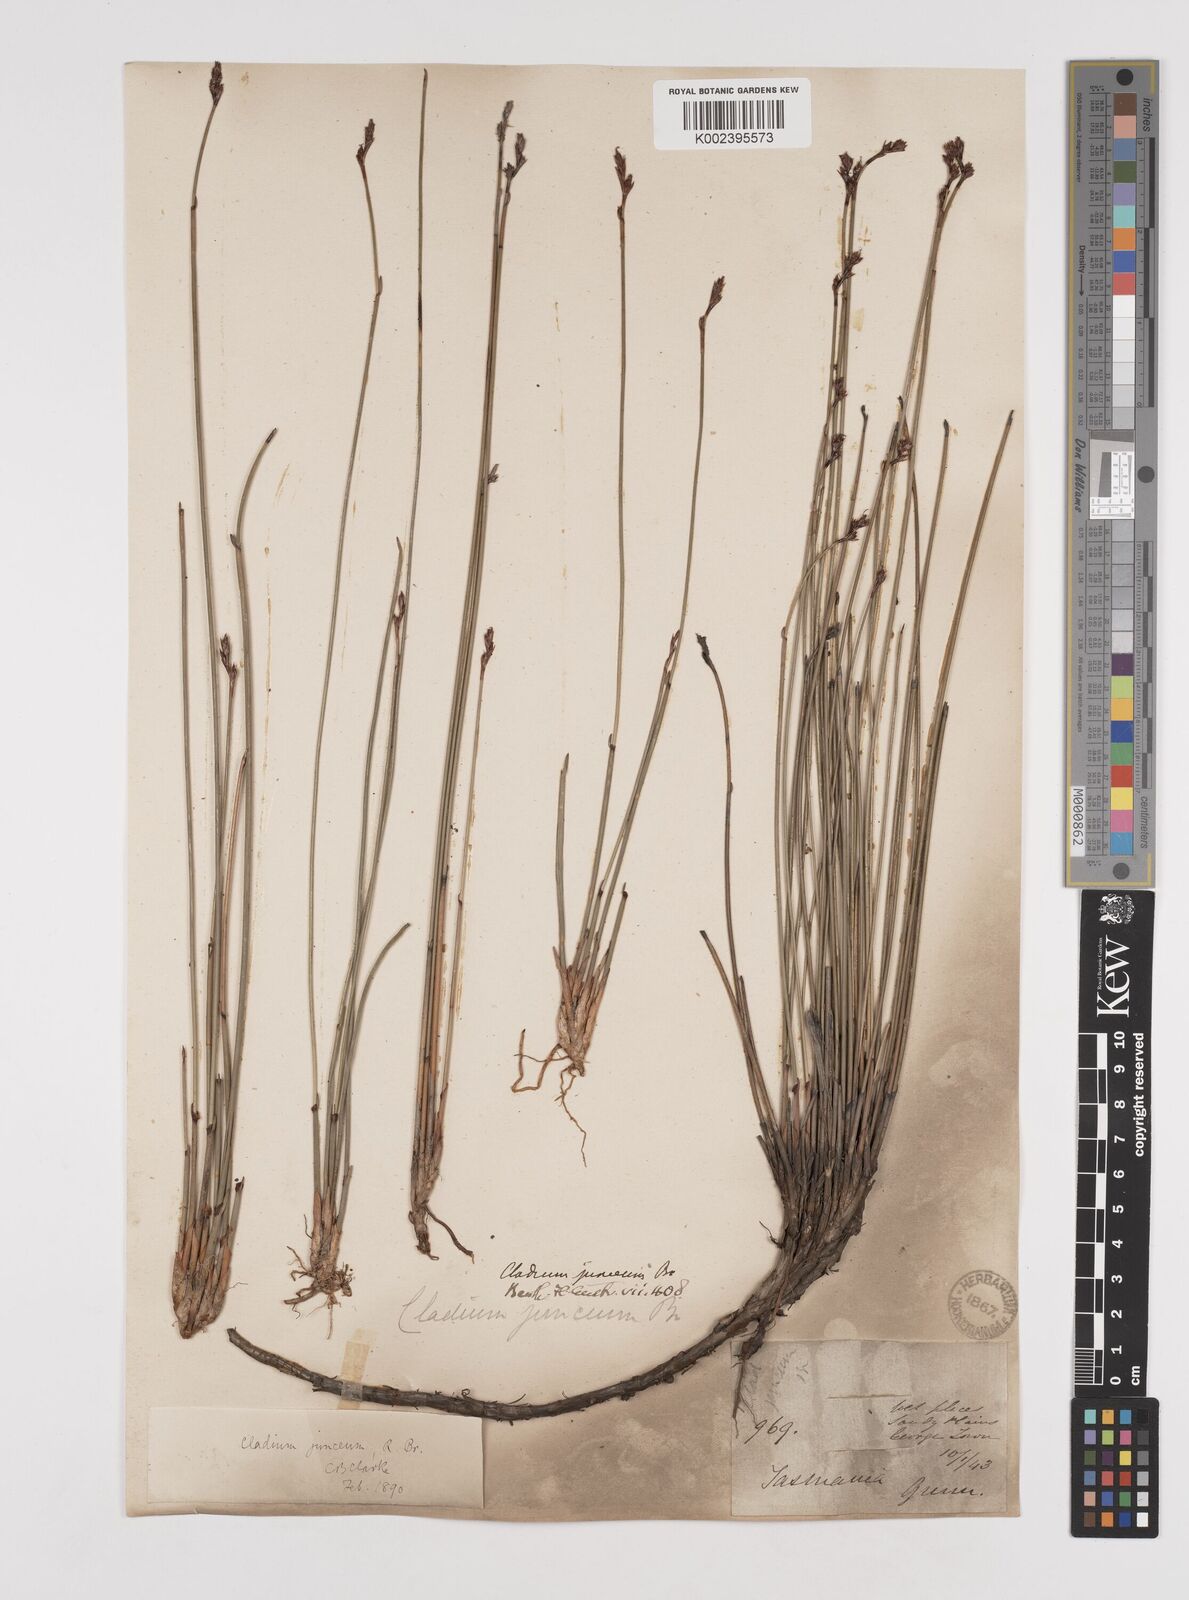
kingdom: Plantae
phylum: Tracheophyta
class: Liliopsida
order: Poales
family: Cyperaceae
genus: Machaerina
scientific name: Machaerina juncea
